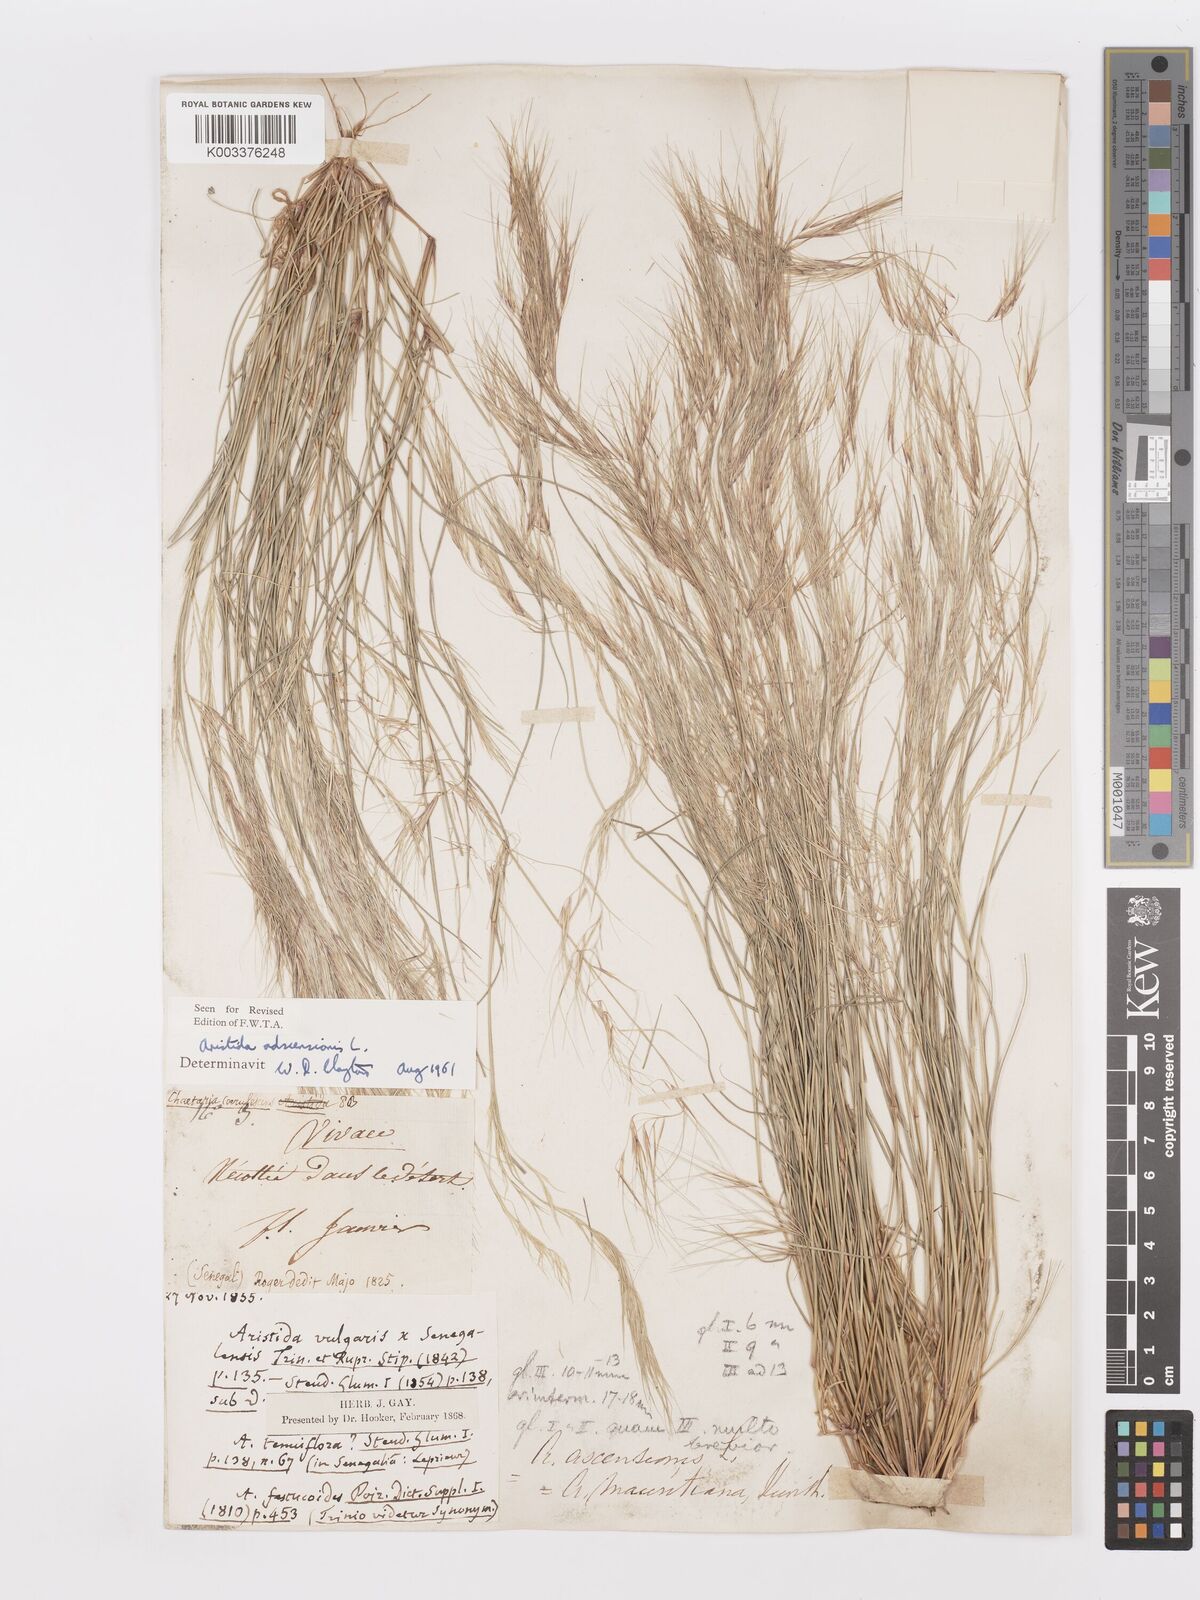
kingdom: Plantae
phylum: Tracheophyta
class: Liliopsida
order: Poales
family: Poaceae
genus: Aristida
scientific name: Aristida adscensionis
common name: Sixweeks threeawn
